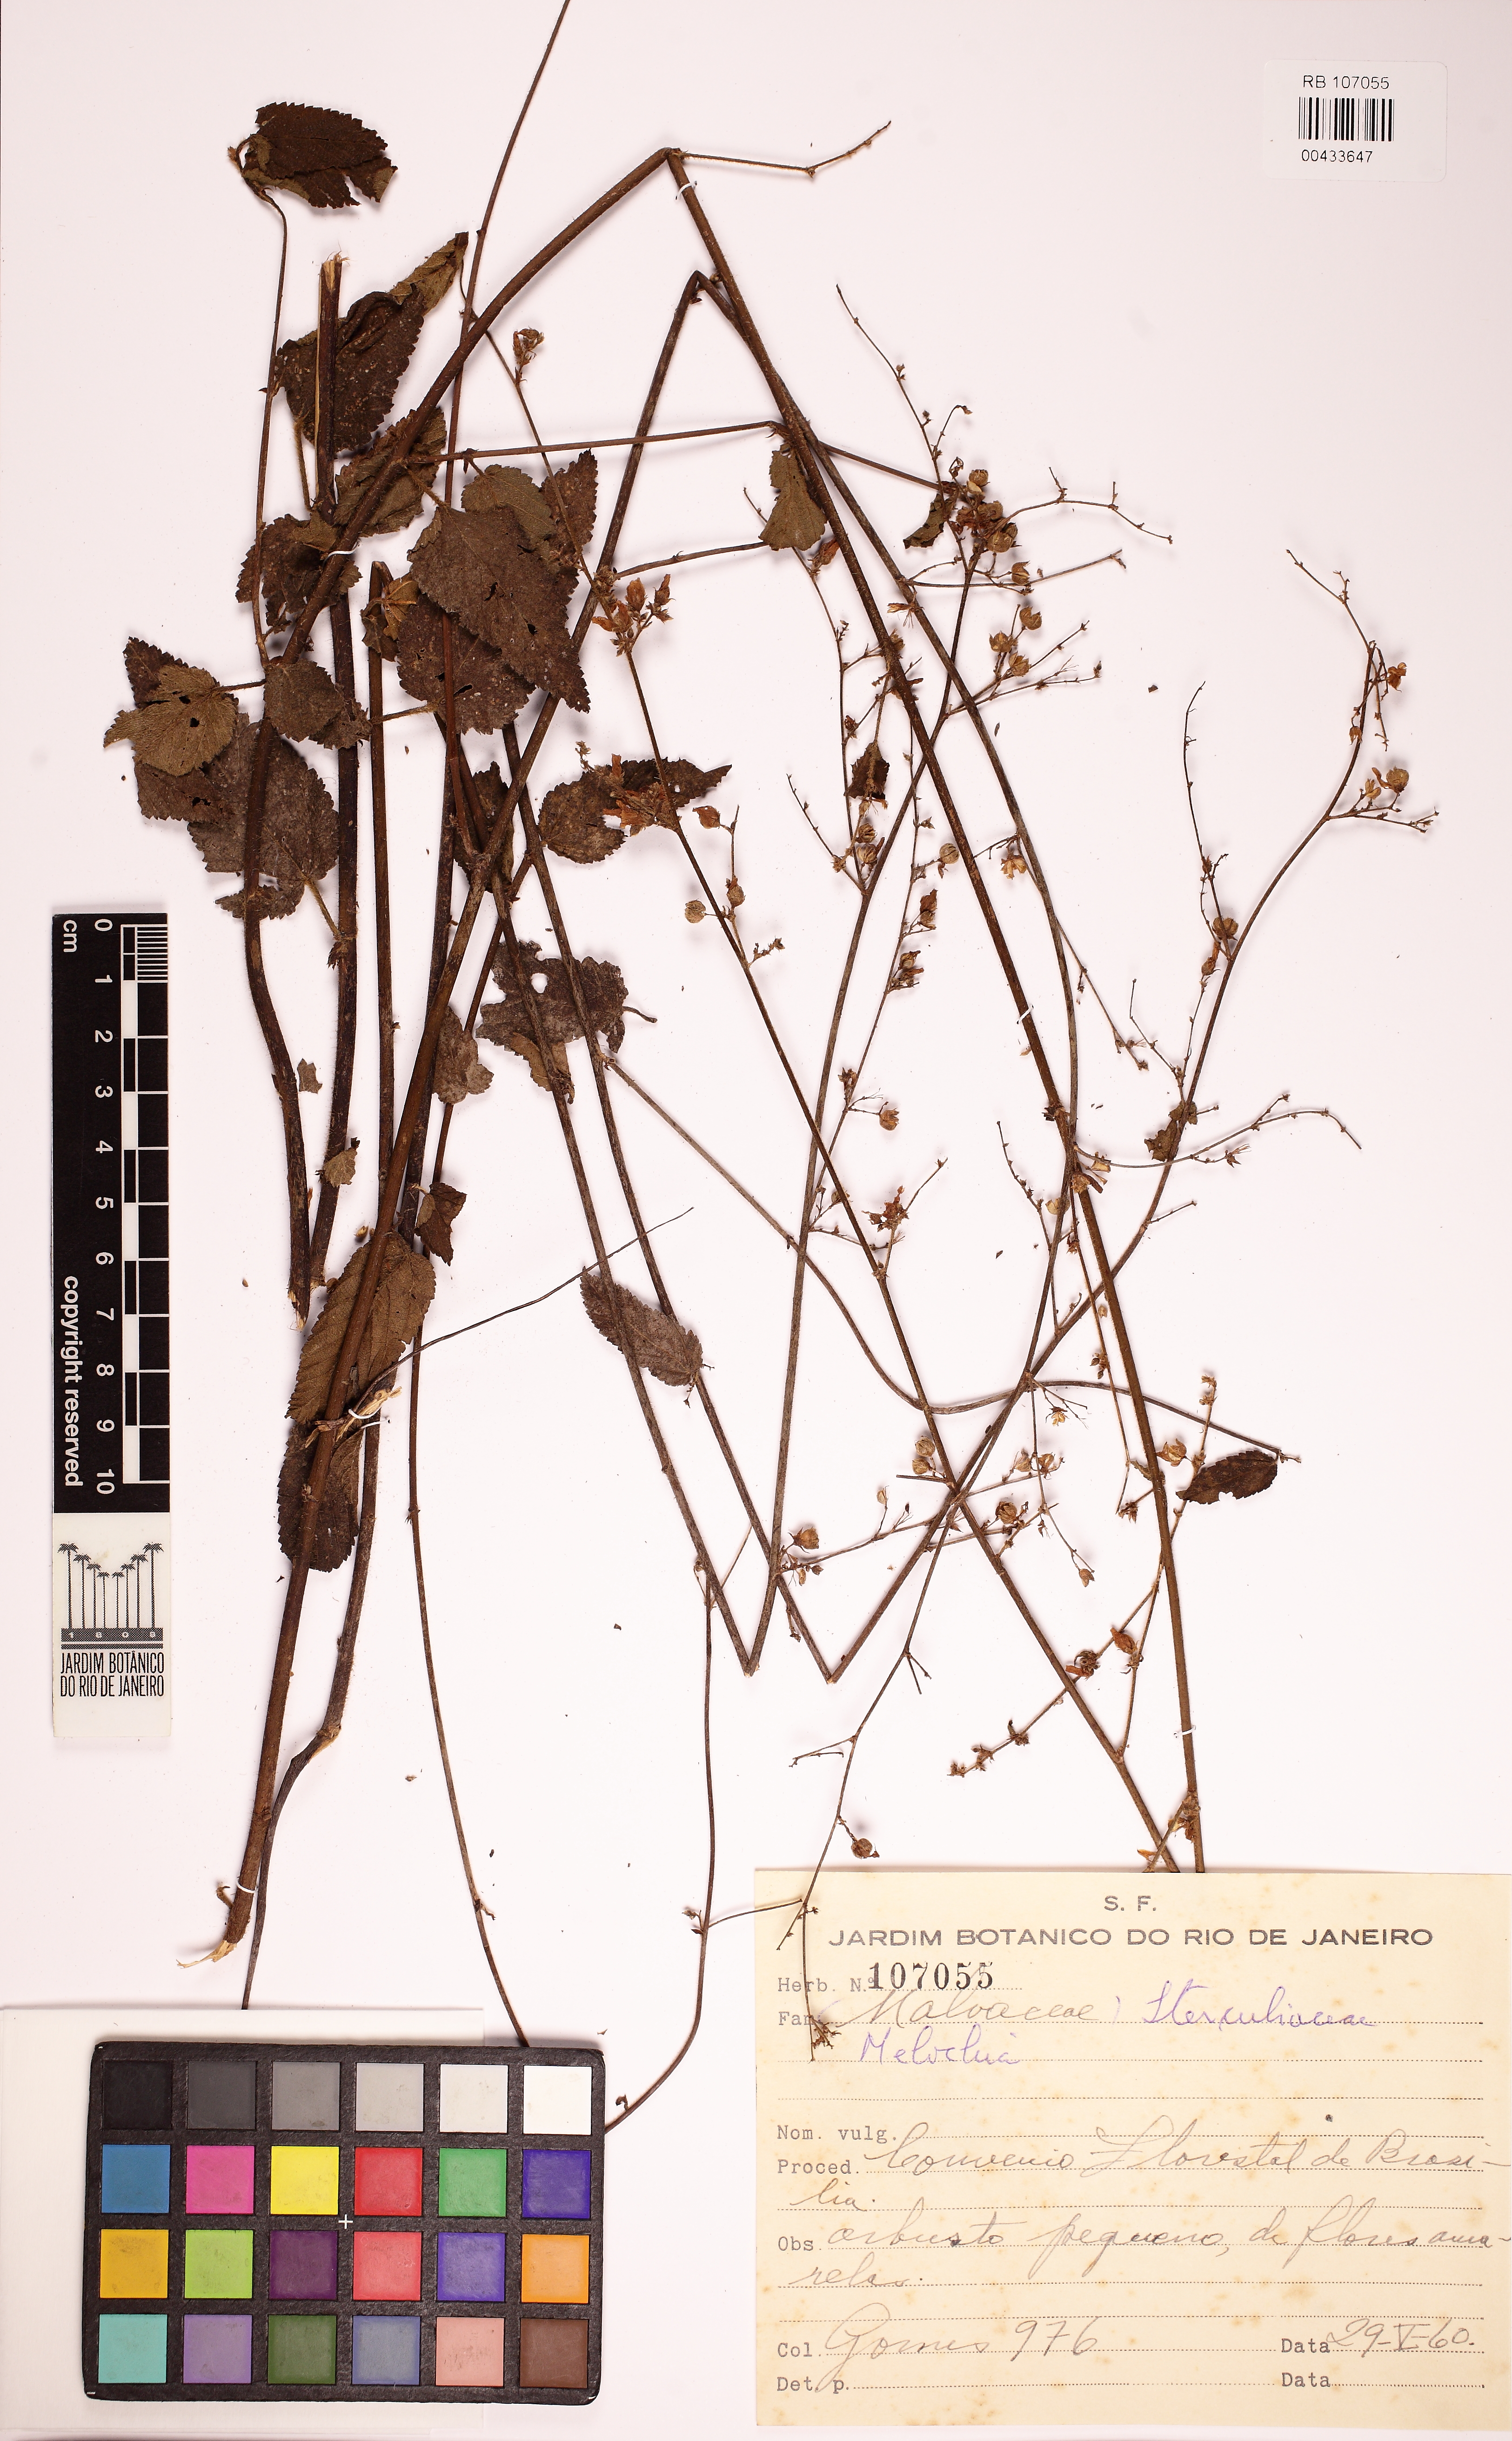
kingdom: Plantae
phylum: Tracheophyta
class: Magnoliopsida
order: Malvales
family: Malvaceae
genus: Melochia
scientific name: Melochia pilosa
